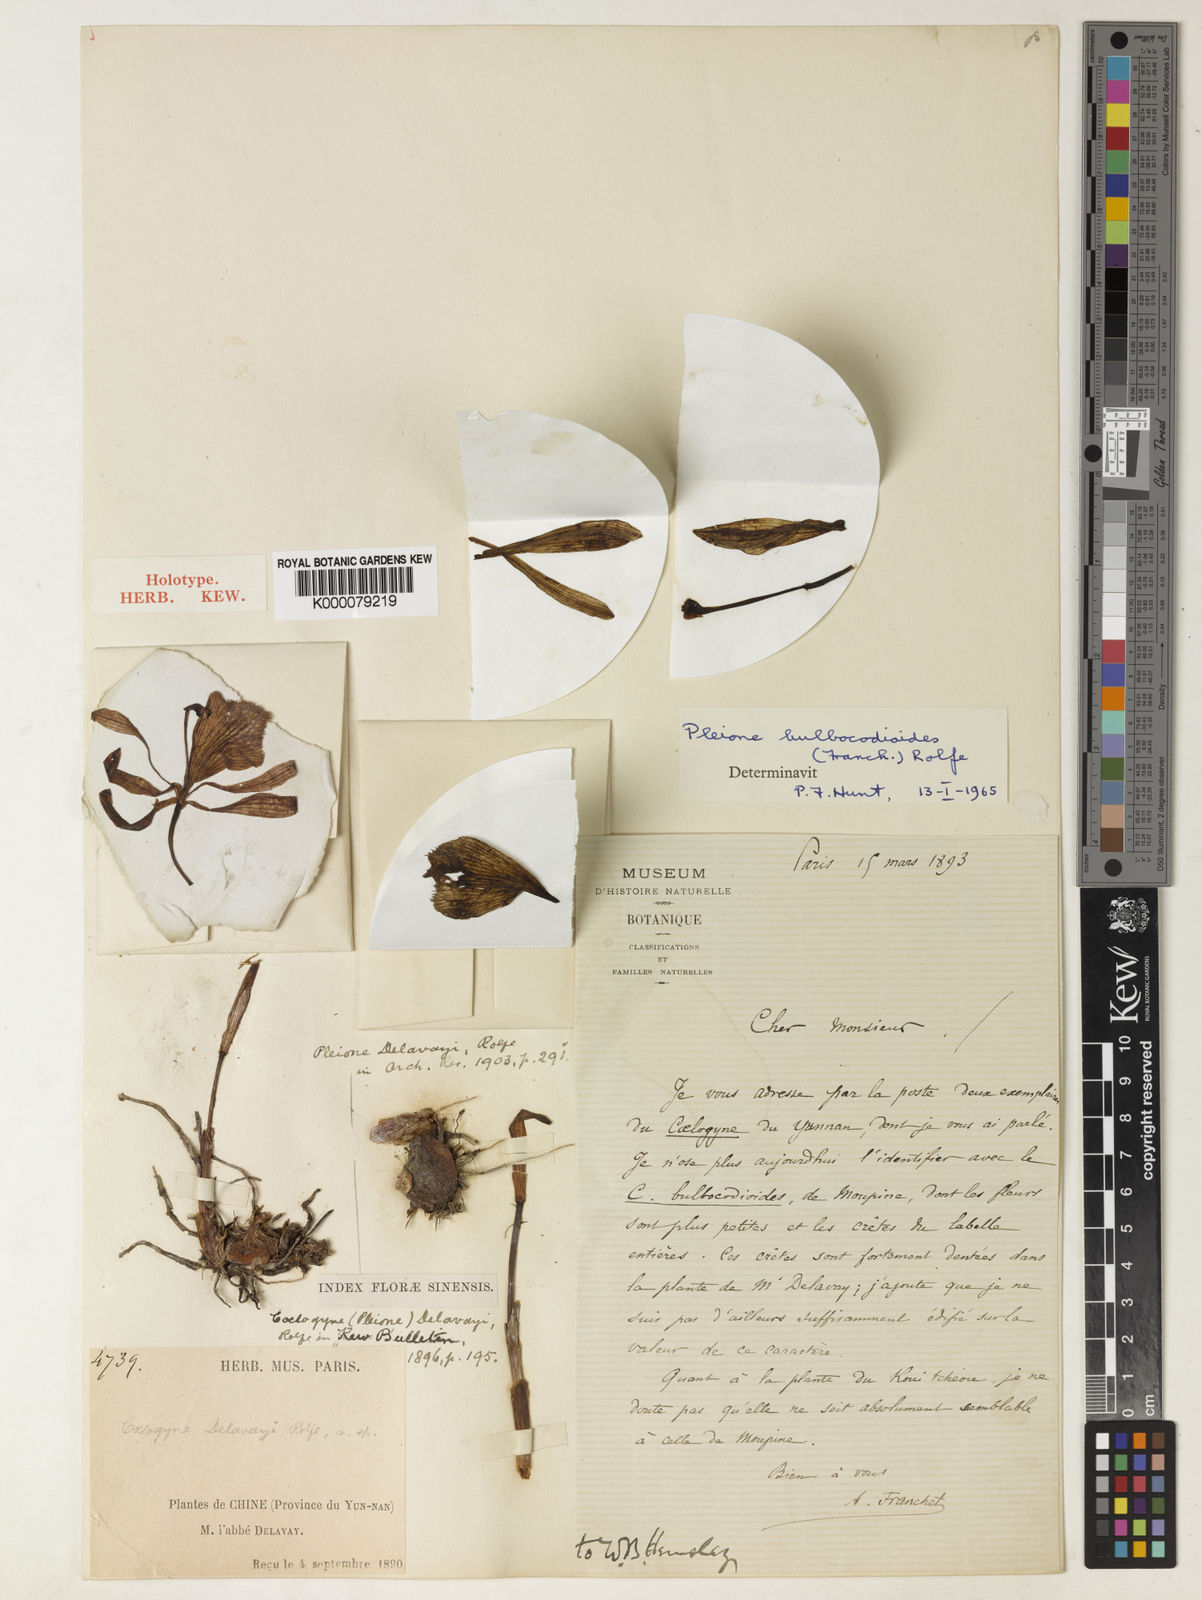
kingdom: Plantae
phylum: Tracheophyta
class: Liliopsida
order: Asparagales
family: Orchidaceae
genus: Pleione
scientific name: Pleione bulbocodioides
